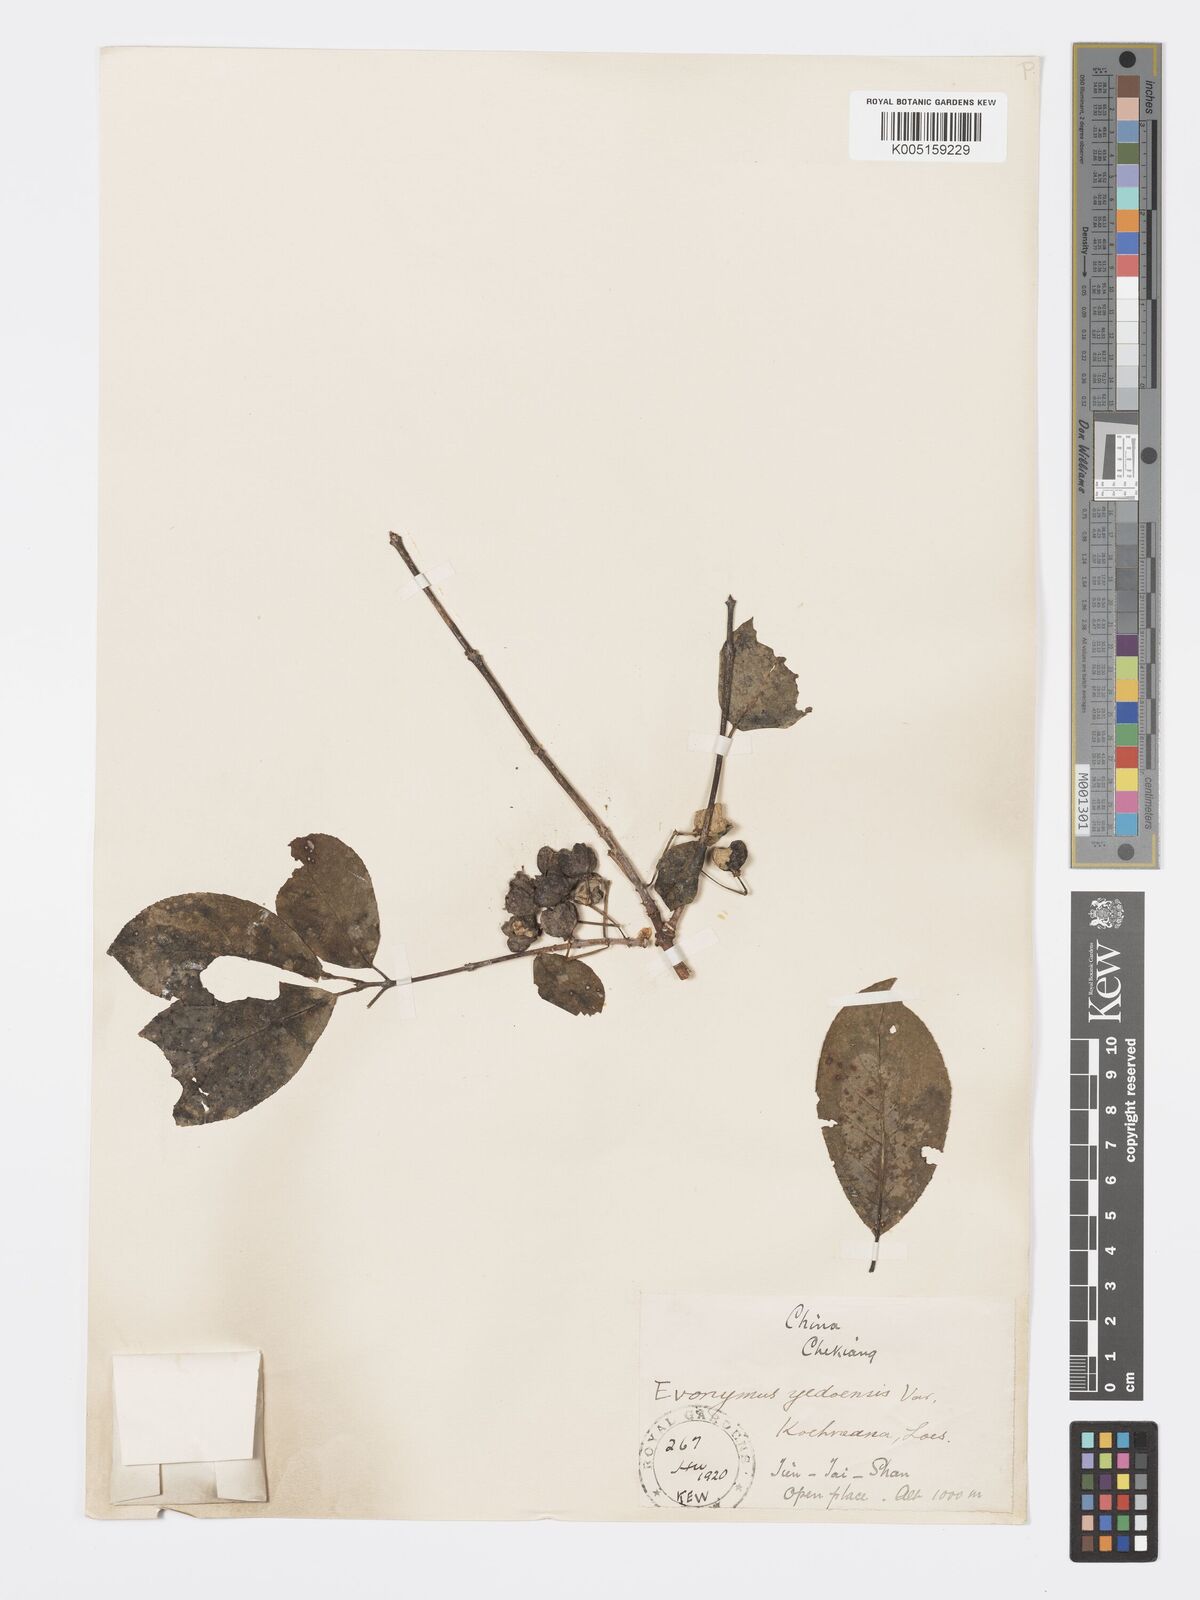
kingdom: Plantae
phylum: Tracheophyta
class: Magnoliopsida
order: Celastrales
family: Celastraceae
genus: Euonymus
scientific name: Euonymus hamiltonianus
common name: Hamilton's spindletree
